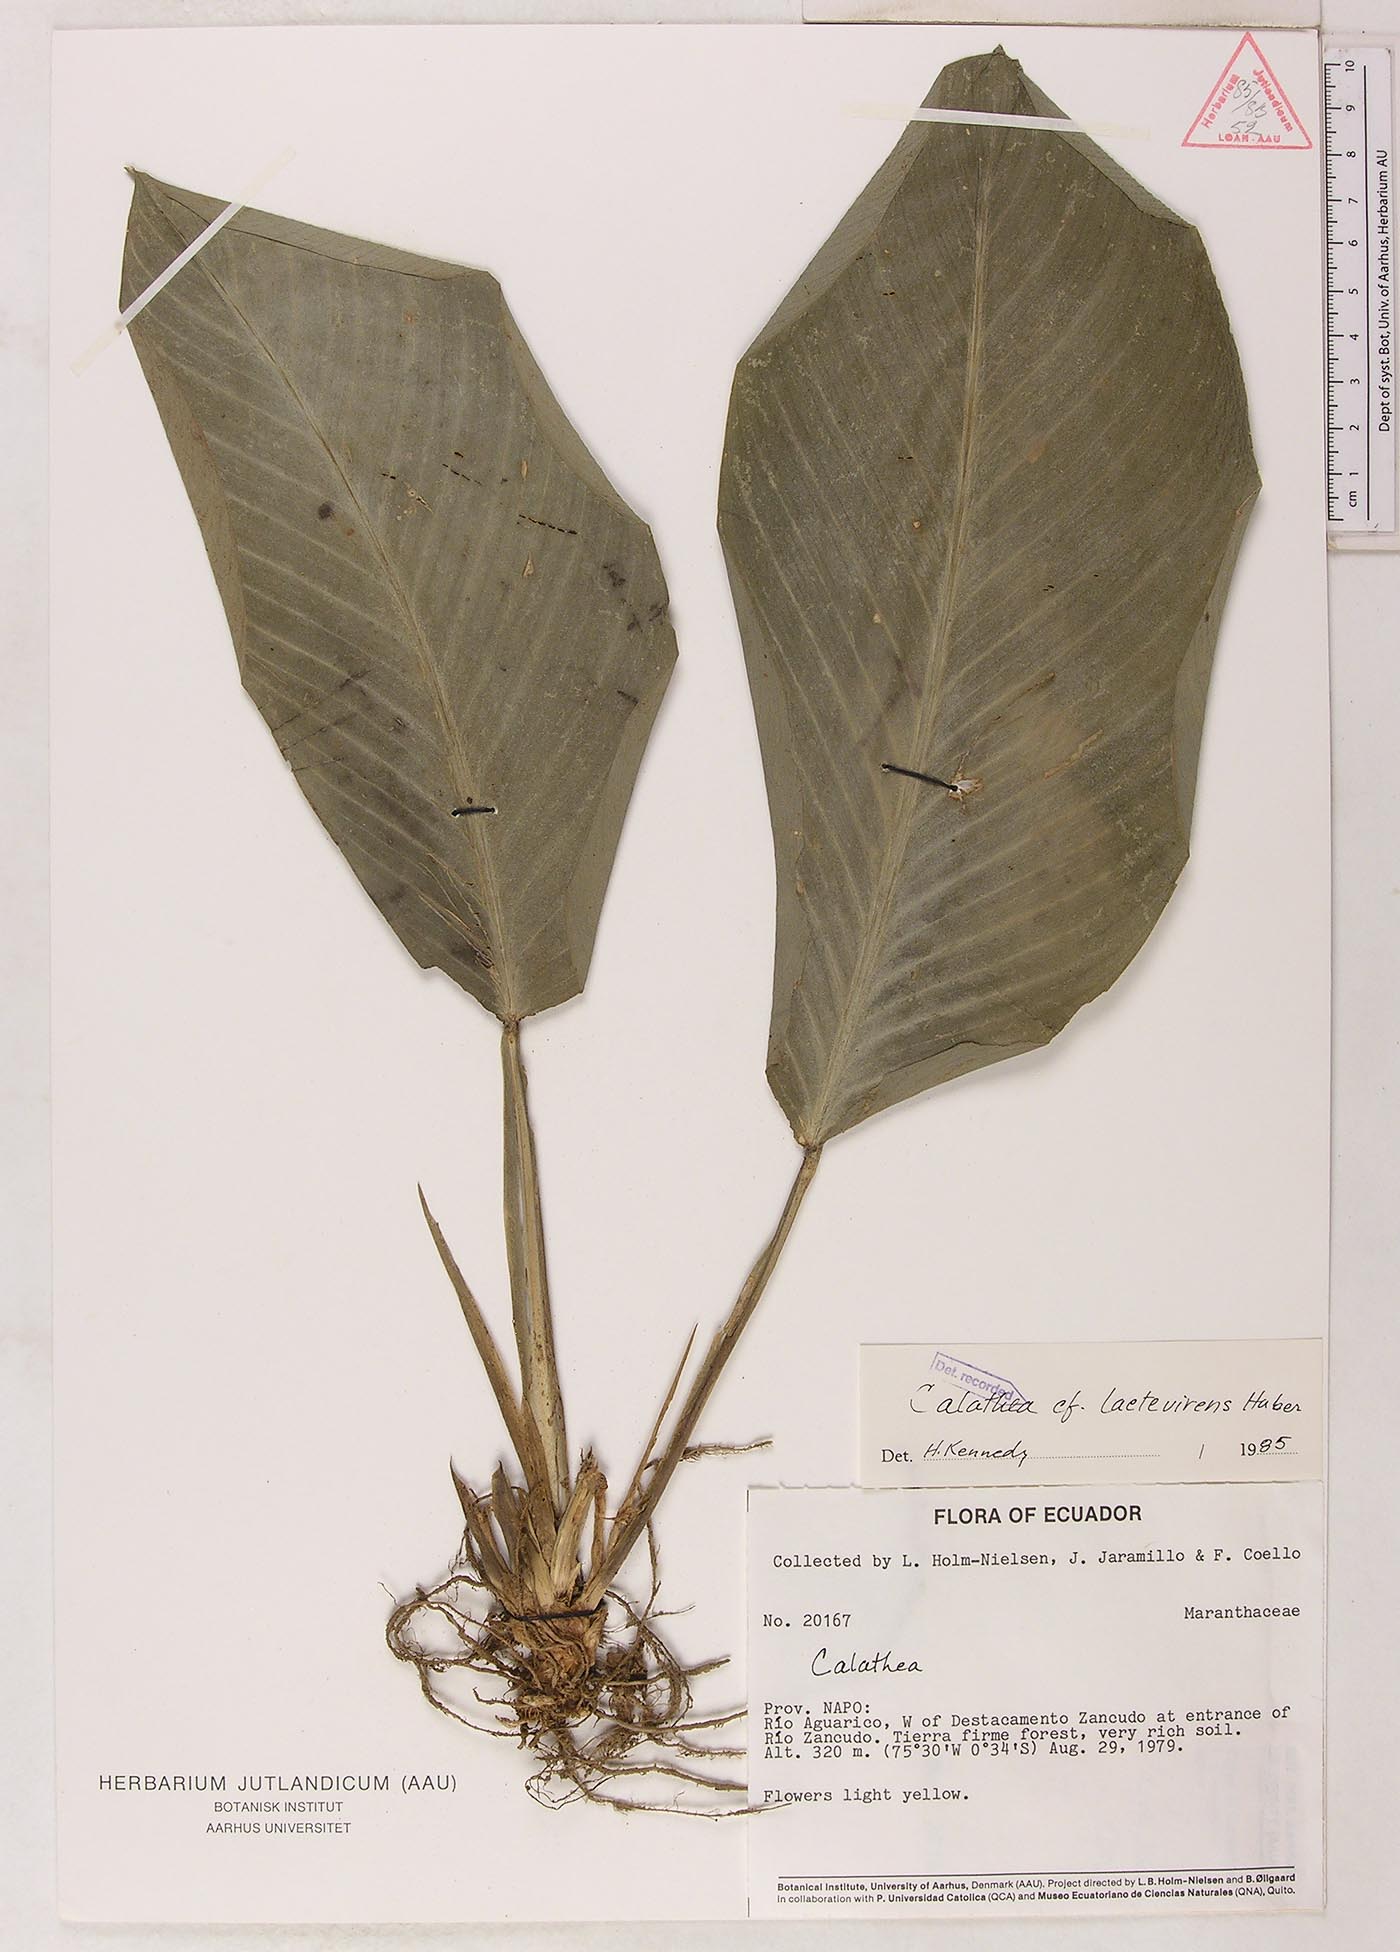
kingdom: Plantae
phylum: Tracheophyta
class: Liliopsida
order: Zingiberales
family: Marantaceae
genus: Goeppertia
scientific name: Goeppertia laetevirens
